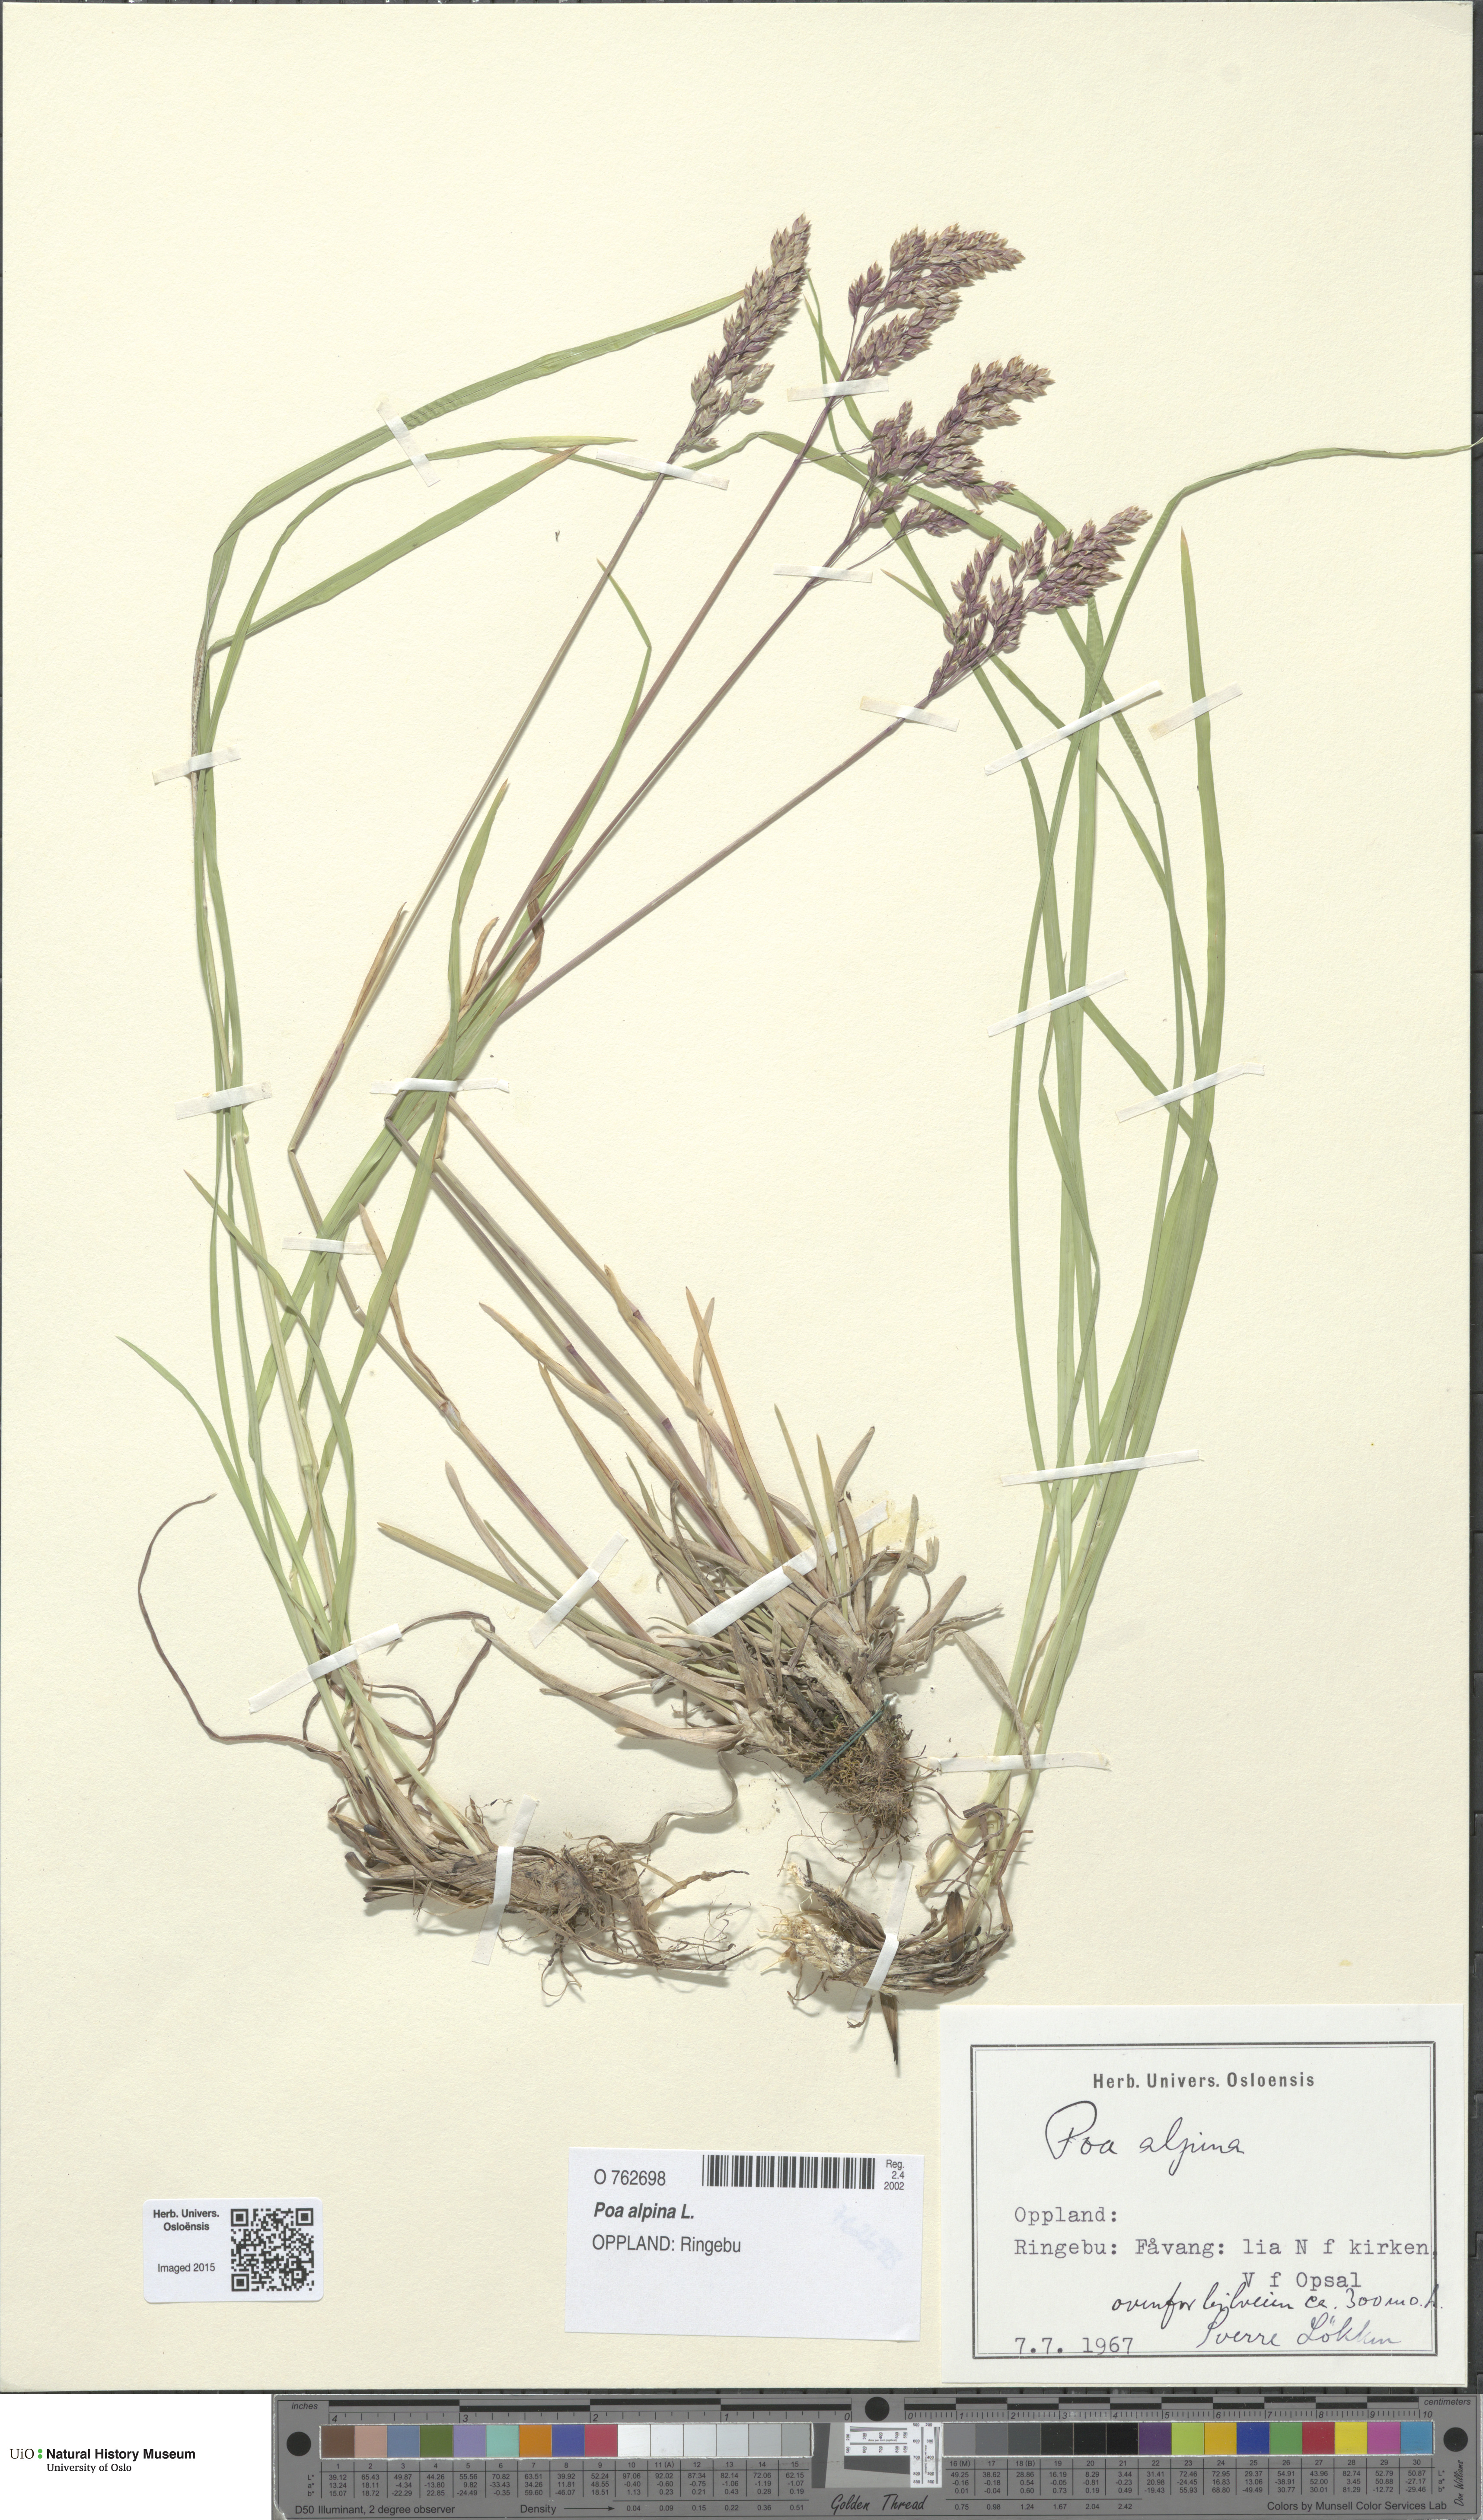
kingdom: Plantae
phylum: Tracheophyta
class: Liliopsida
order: Poales
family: Poaceae
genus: Poa
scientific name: Poa alpina
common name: Alpine bluegrass
